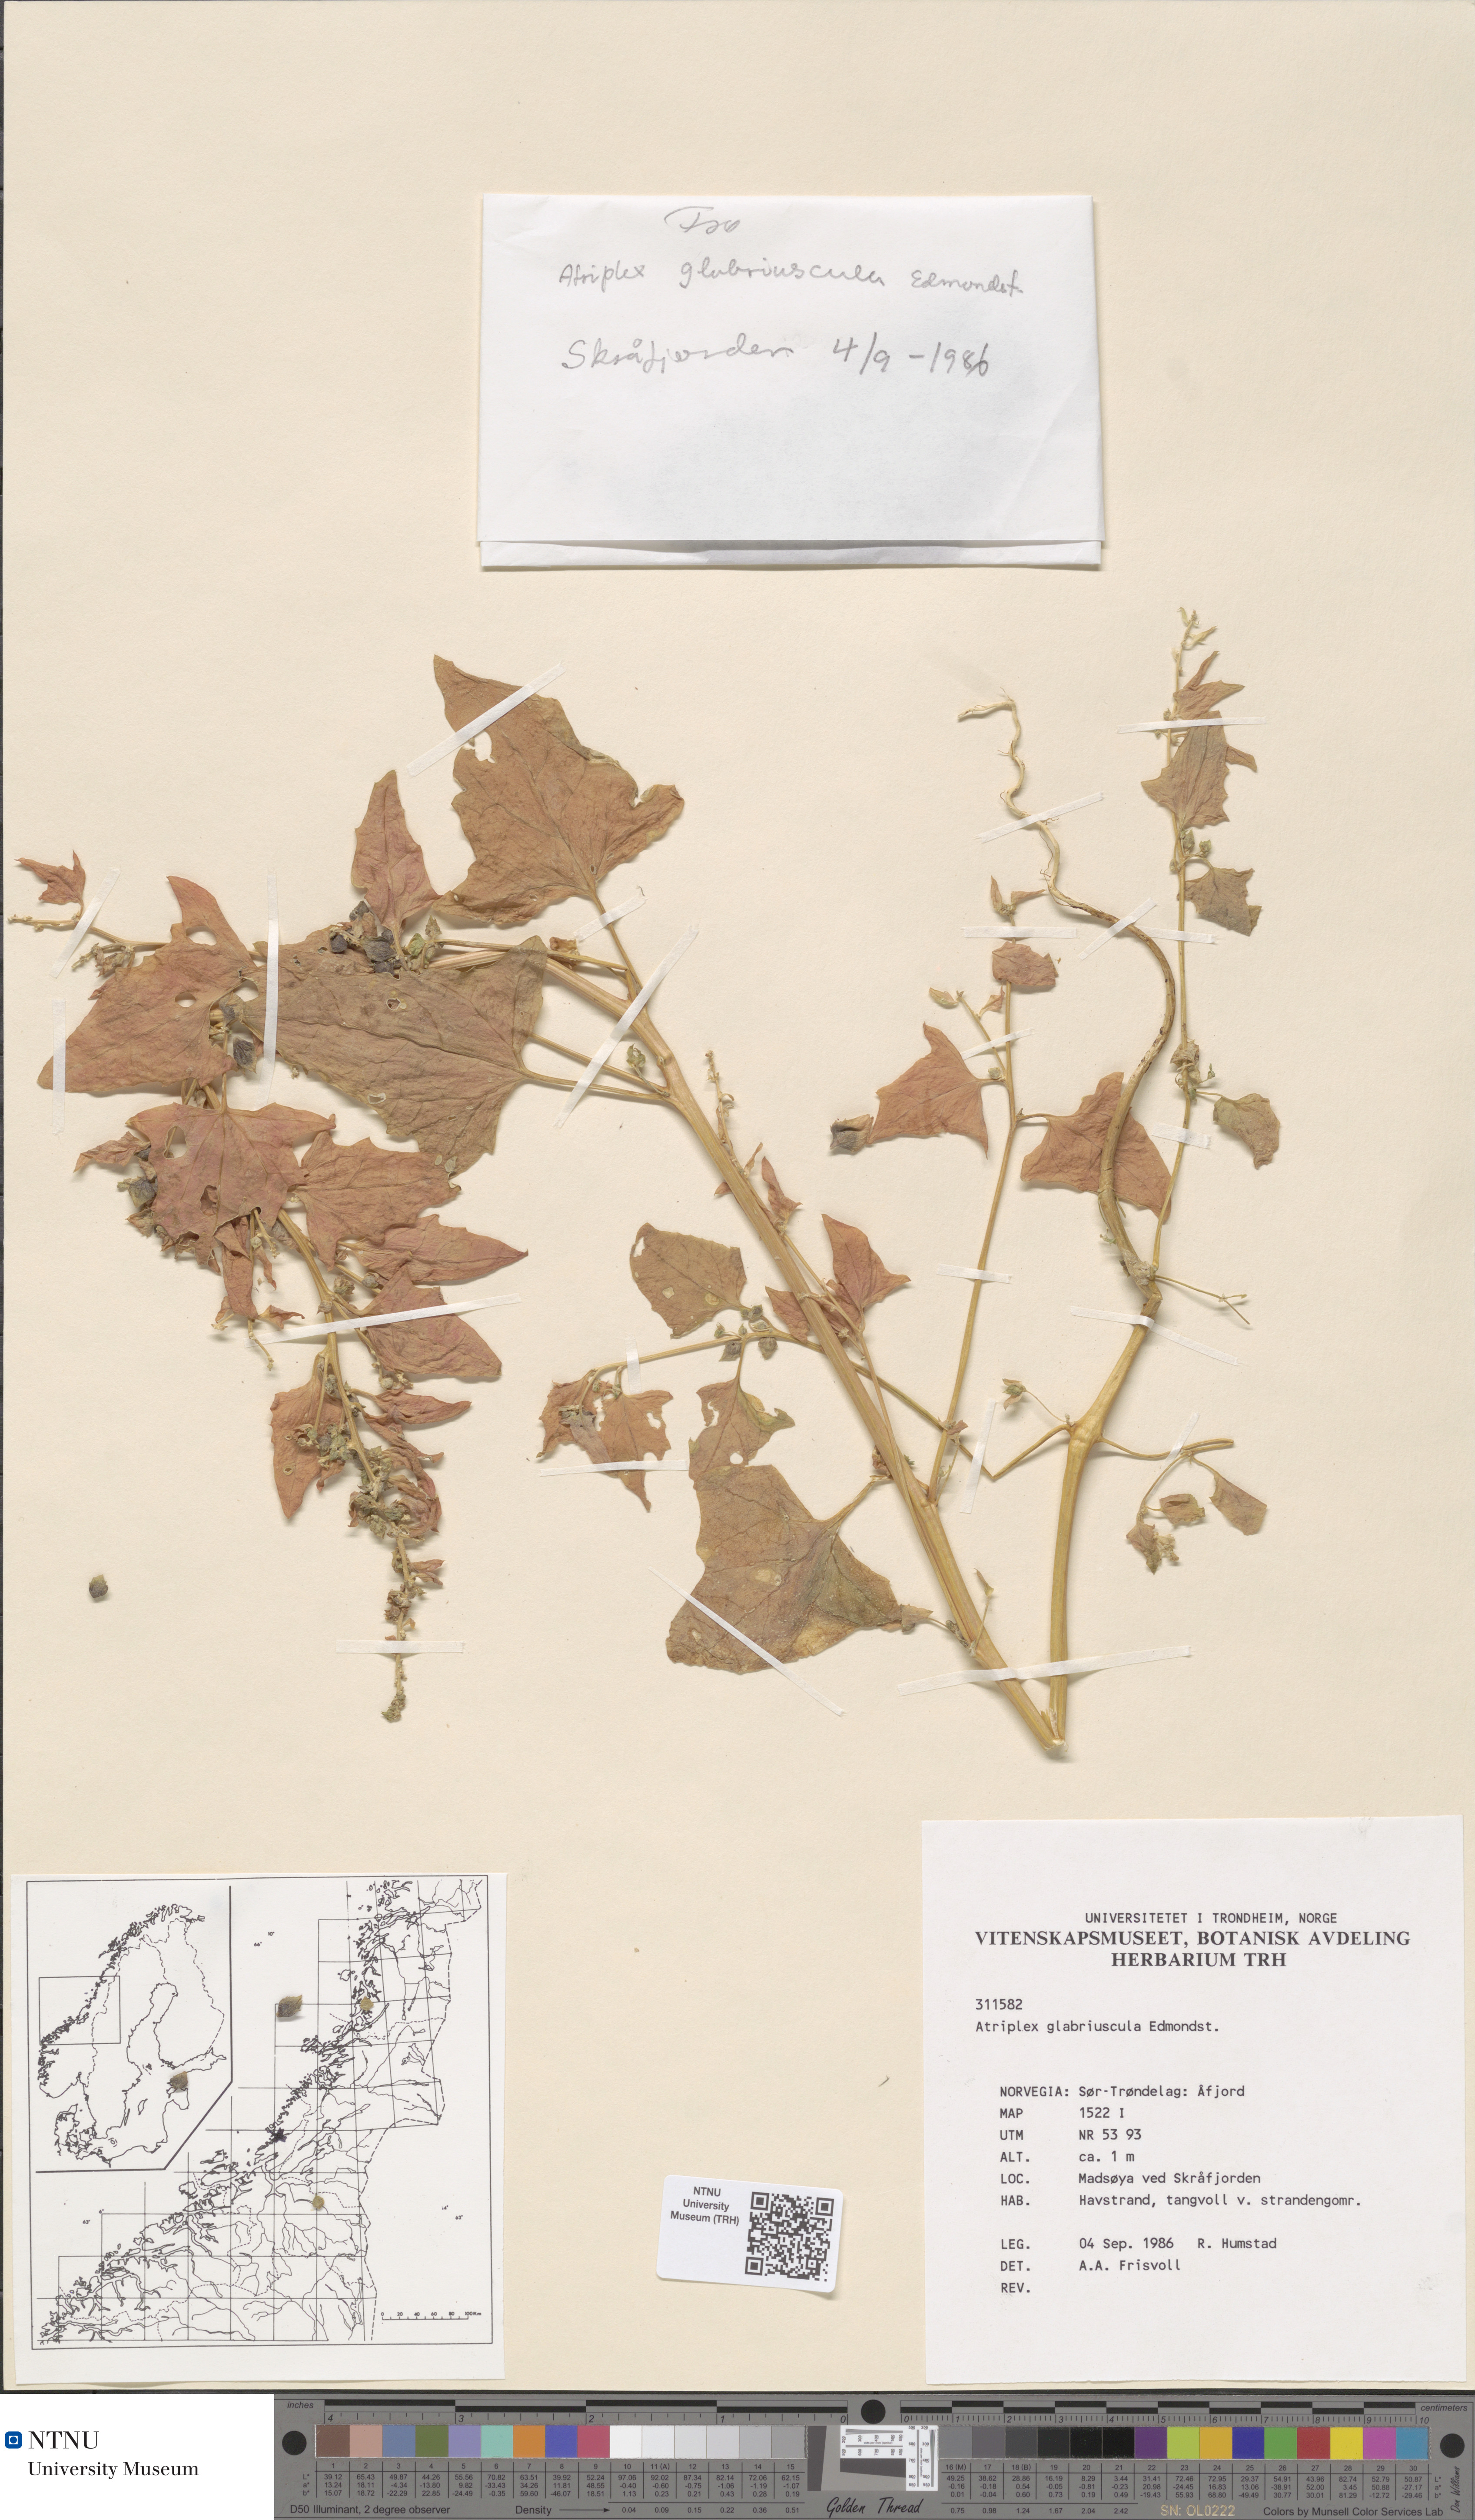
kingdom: Plantae
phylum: Tracheophyta
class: Magnoliopsida
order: Caryophyllales
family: Amaranthaceae
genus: Atriplex
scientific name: Atriplex glabriuscula
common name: Babington's orache
